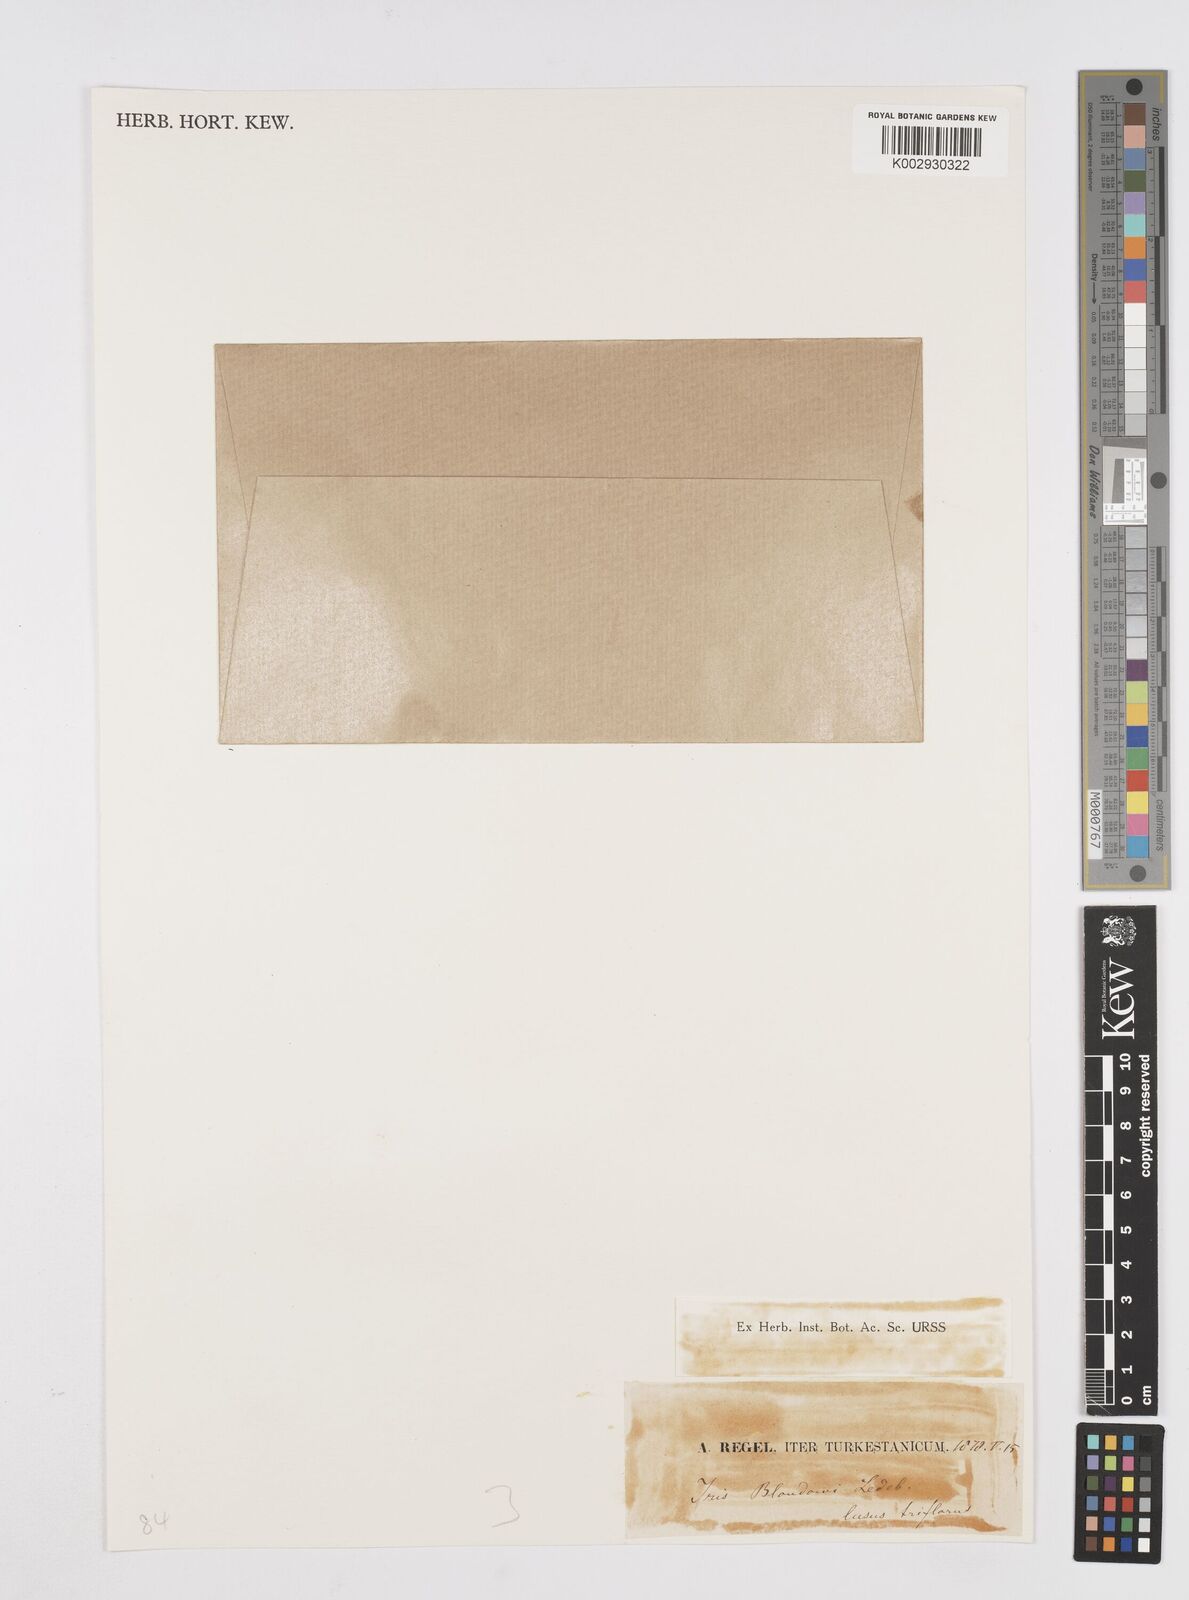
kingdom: Plantae
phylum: Tracheophyta
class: Liliopsida
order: Asparagales
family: Iridaceae
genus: Iris
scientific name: Iris bloudowii
